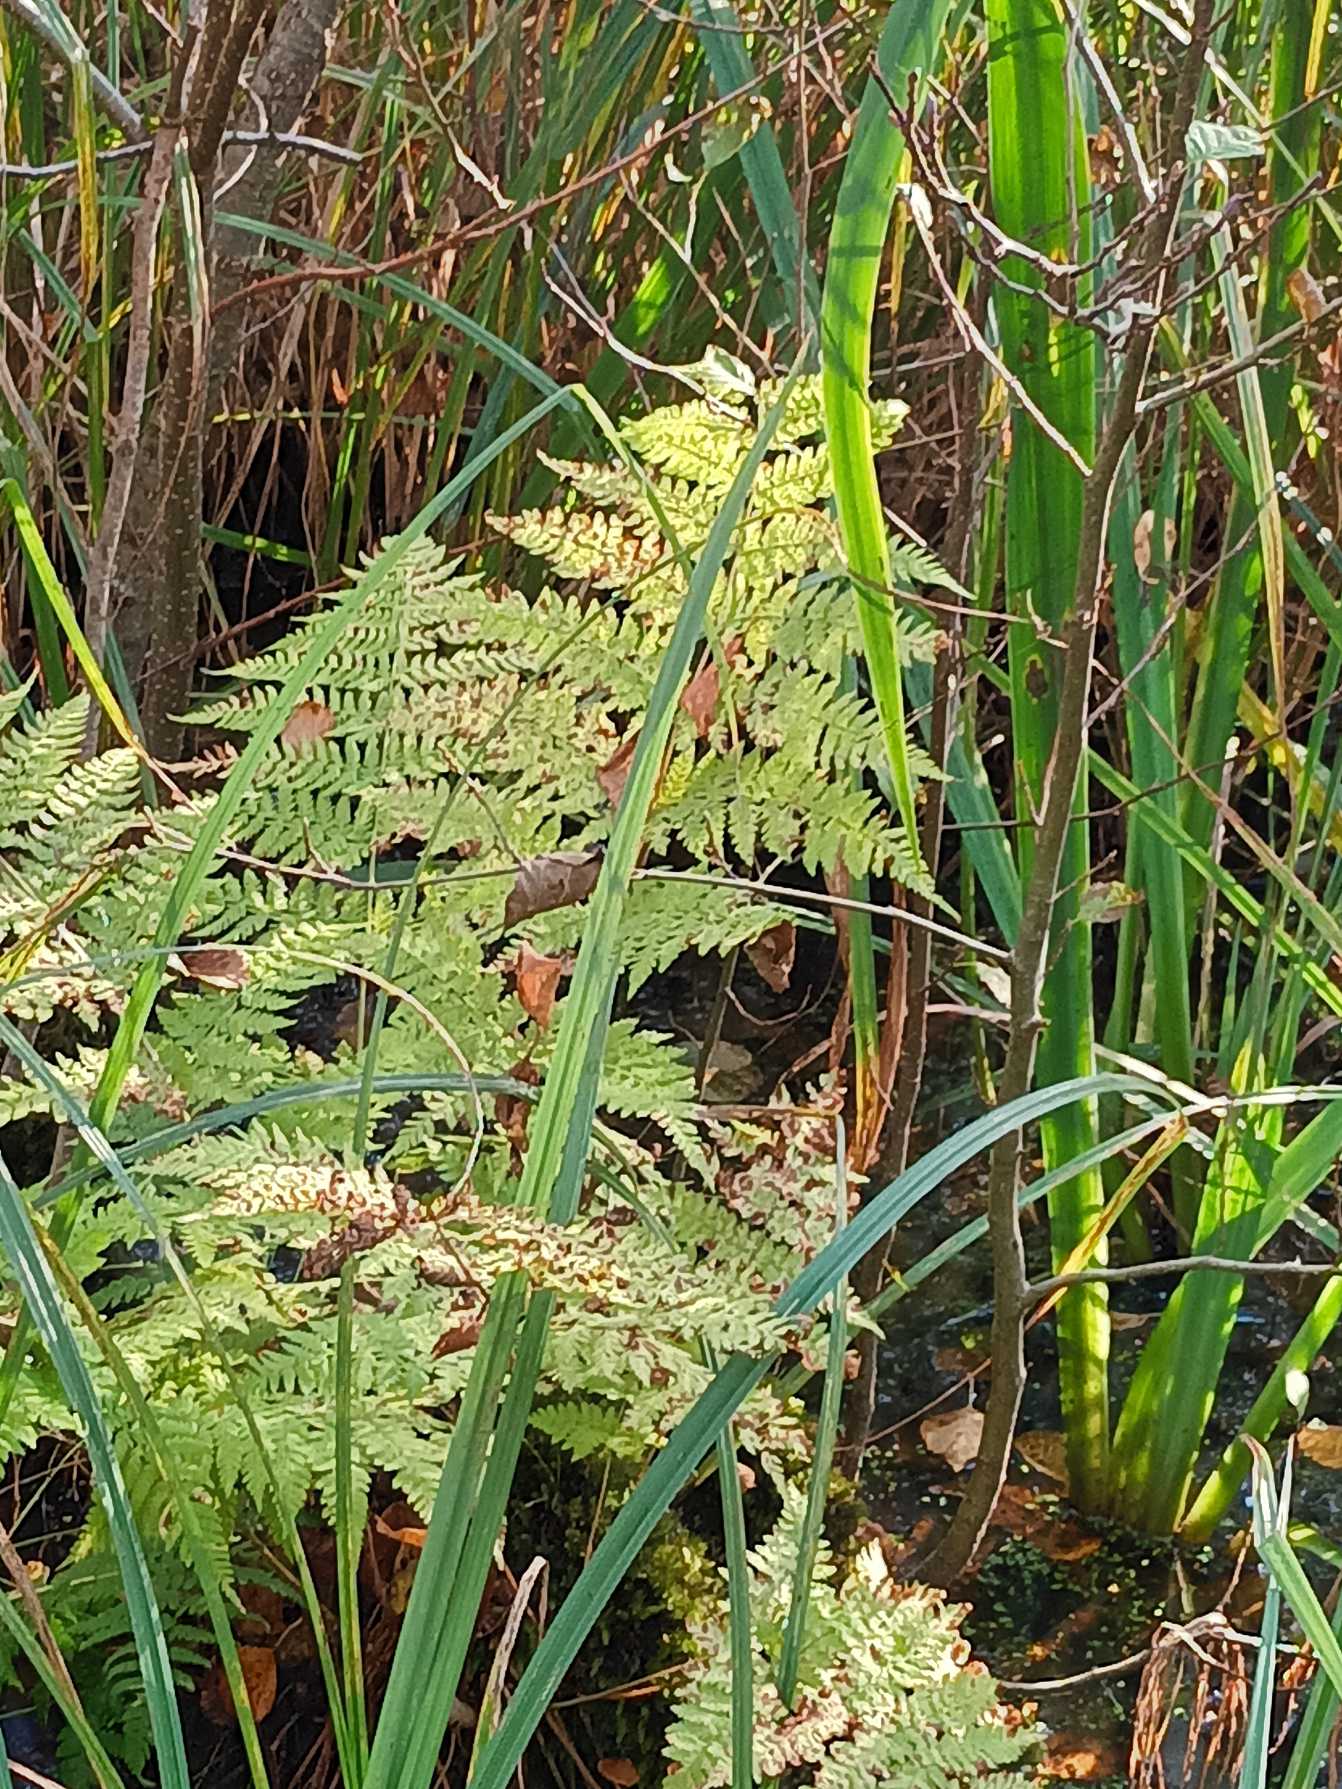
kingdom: Plantae
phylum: Tracheophyta
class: Polypodiopsida
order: Polypodiales
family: Dryopteridaceae
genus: Dryopteris
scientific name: Dryopteris expansa
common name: Finbladet mangeløv
